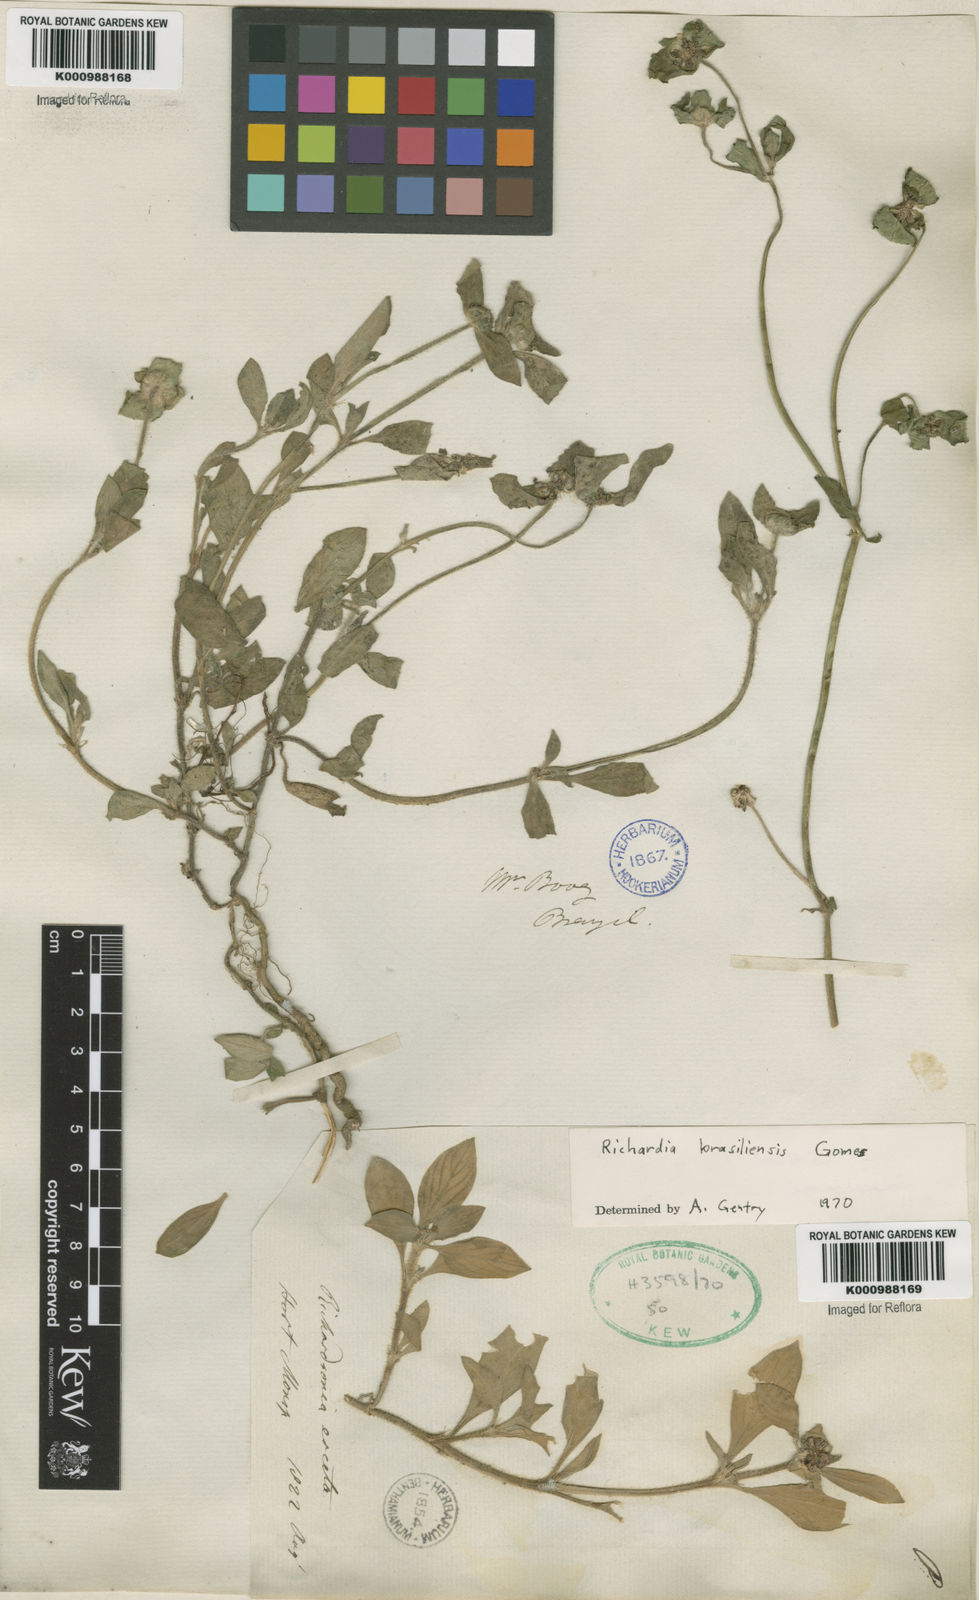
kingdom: Plantae
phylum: Tracheophyta
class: Magnoliopsida
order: Gentianales
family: Rubiaceae
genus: Richardia
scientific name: Richardia brasiliensis
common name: Tropical mexican clover
